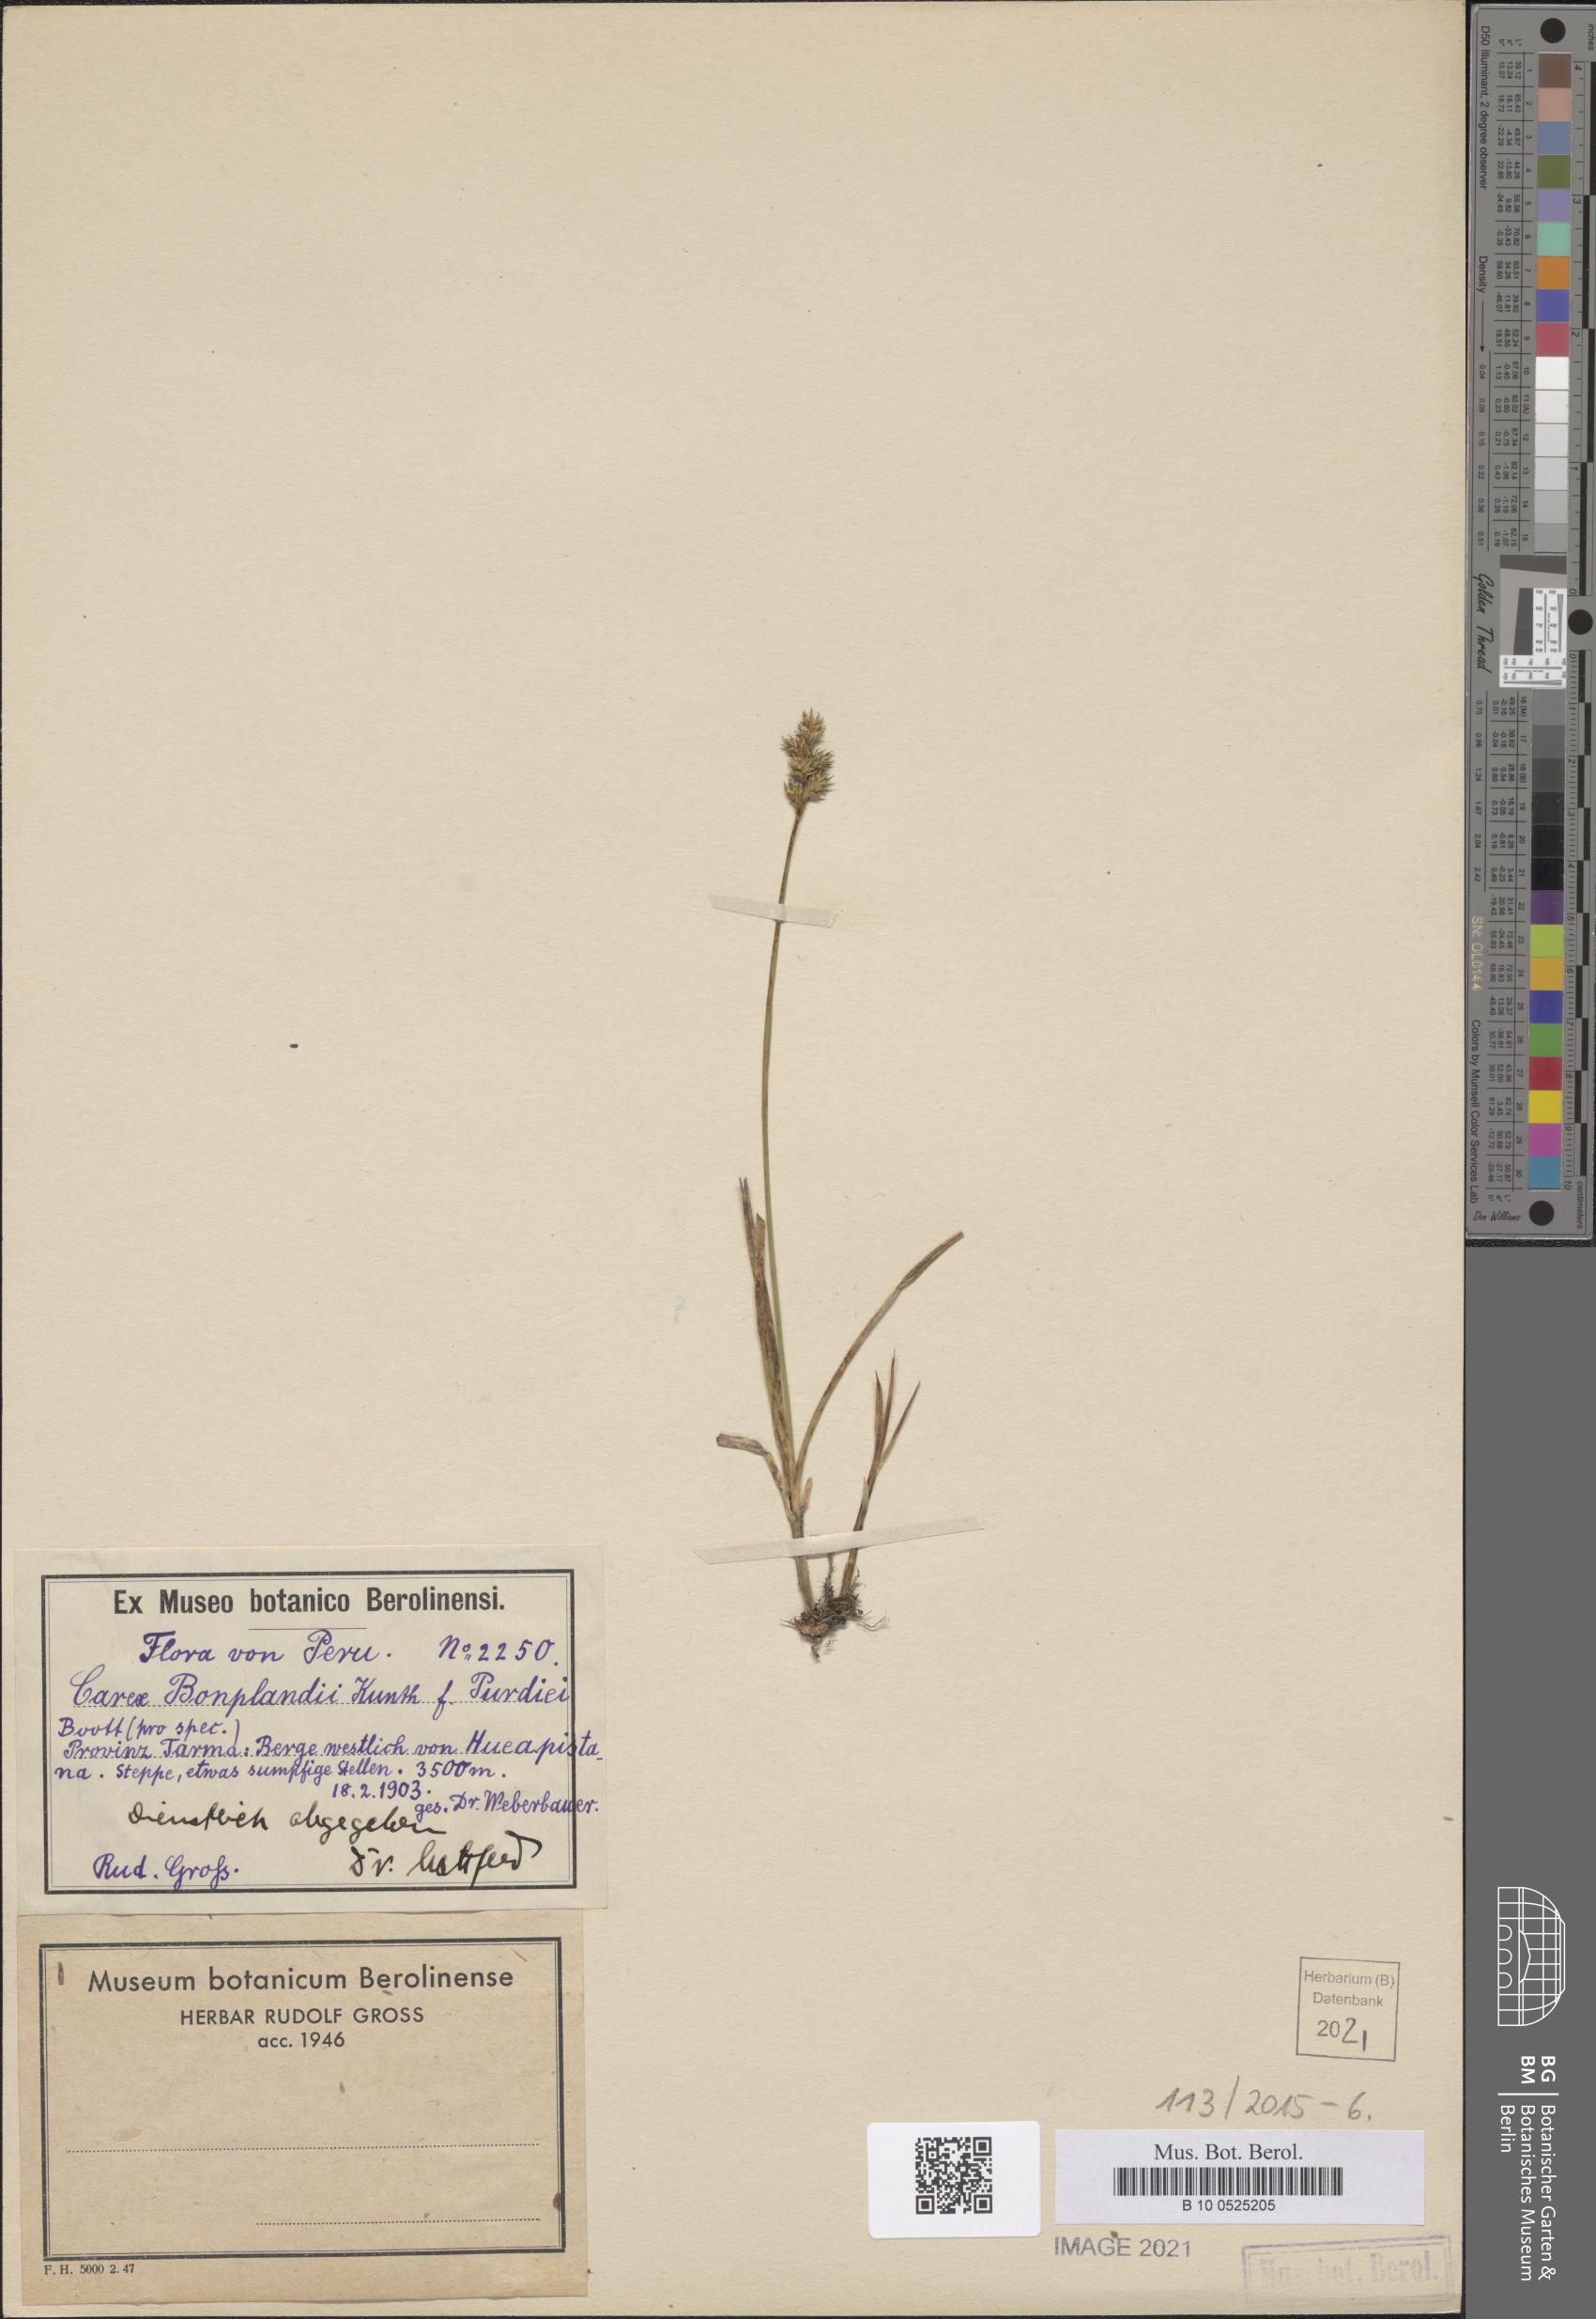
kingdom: Plantae
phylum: Tracheophyta
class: Liliopsida
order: Poales
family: Cyperaceae
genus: Carex
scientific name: Carex bonplandii
